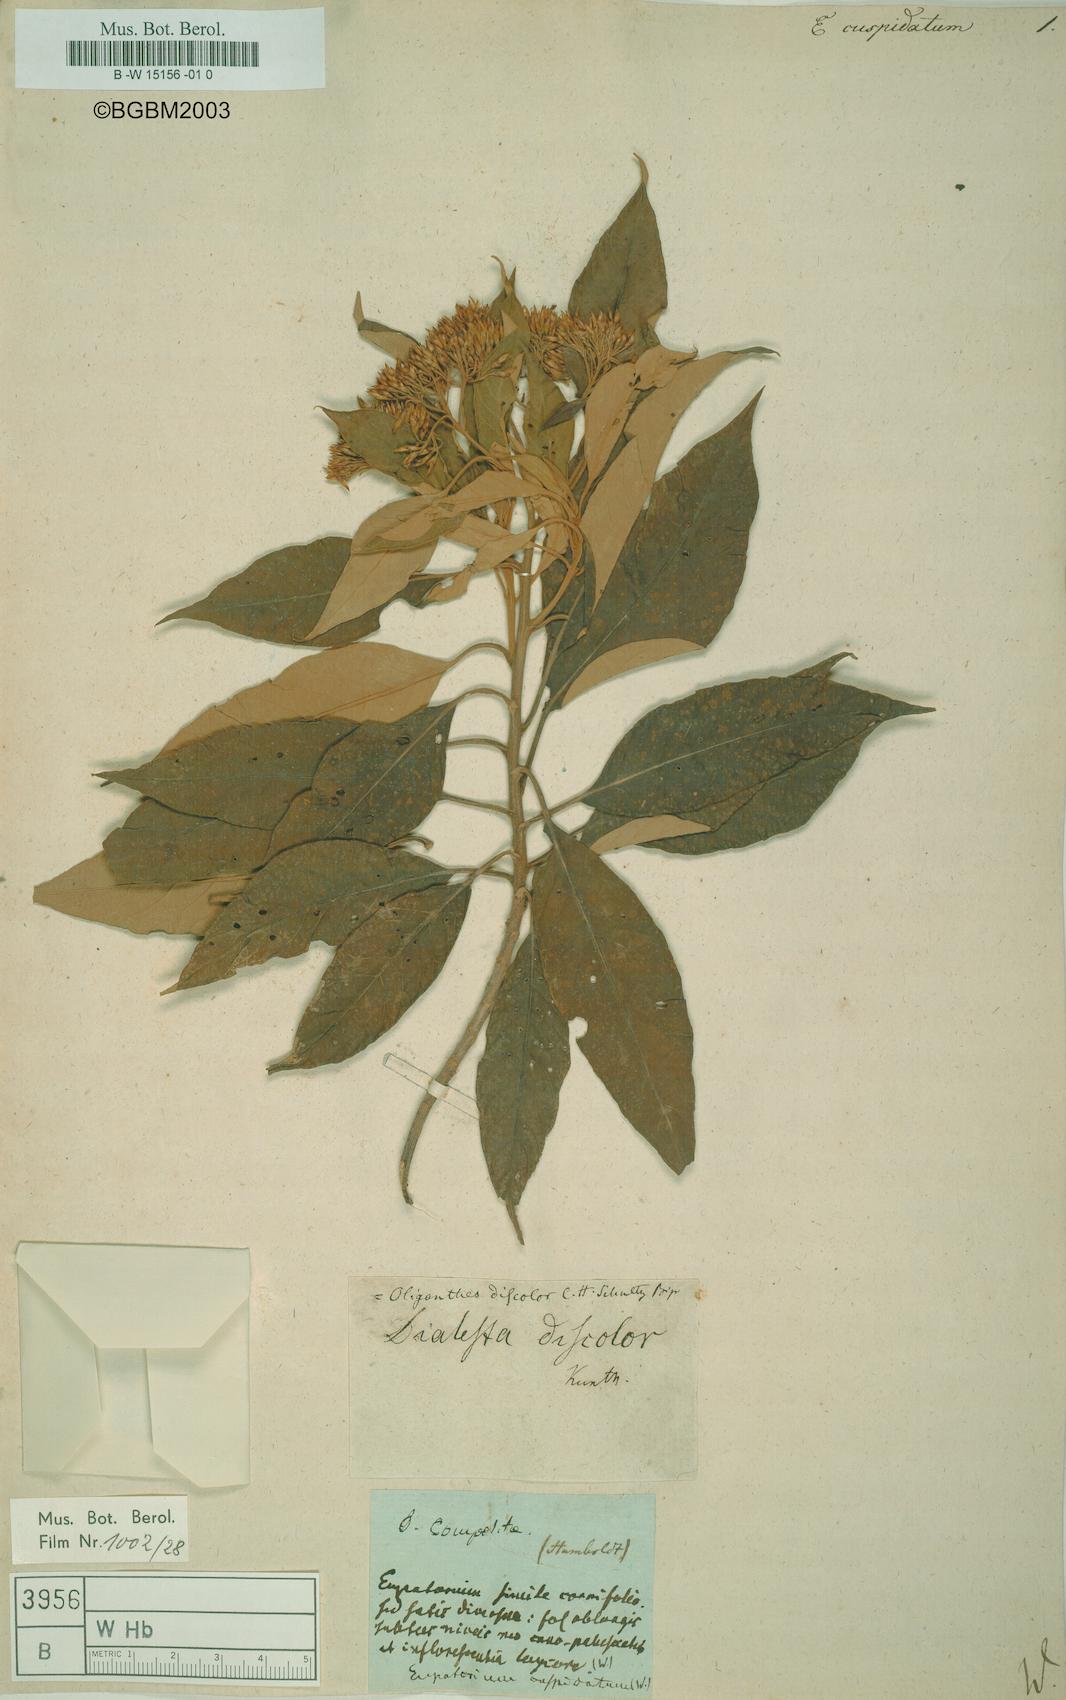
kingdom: Plantae
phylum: Tracheophyta
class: Magnoliopsida
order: Asterales
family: Asteraceae
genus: Piptocoma
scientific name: Piptocoma discolor
